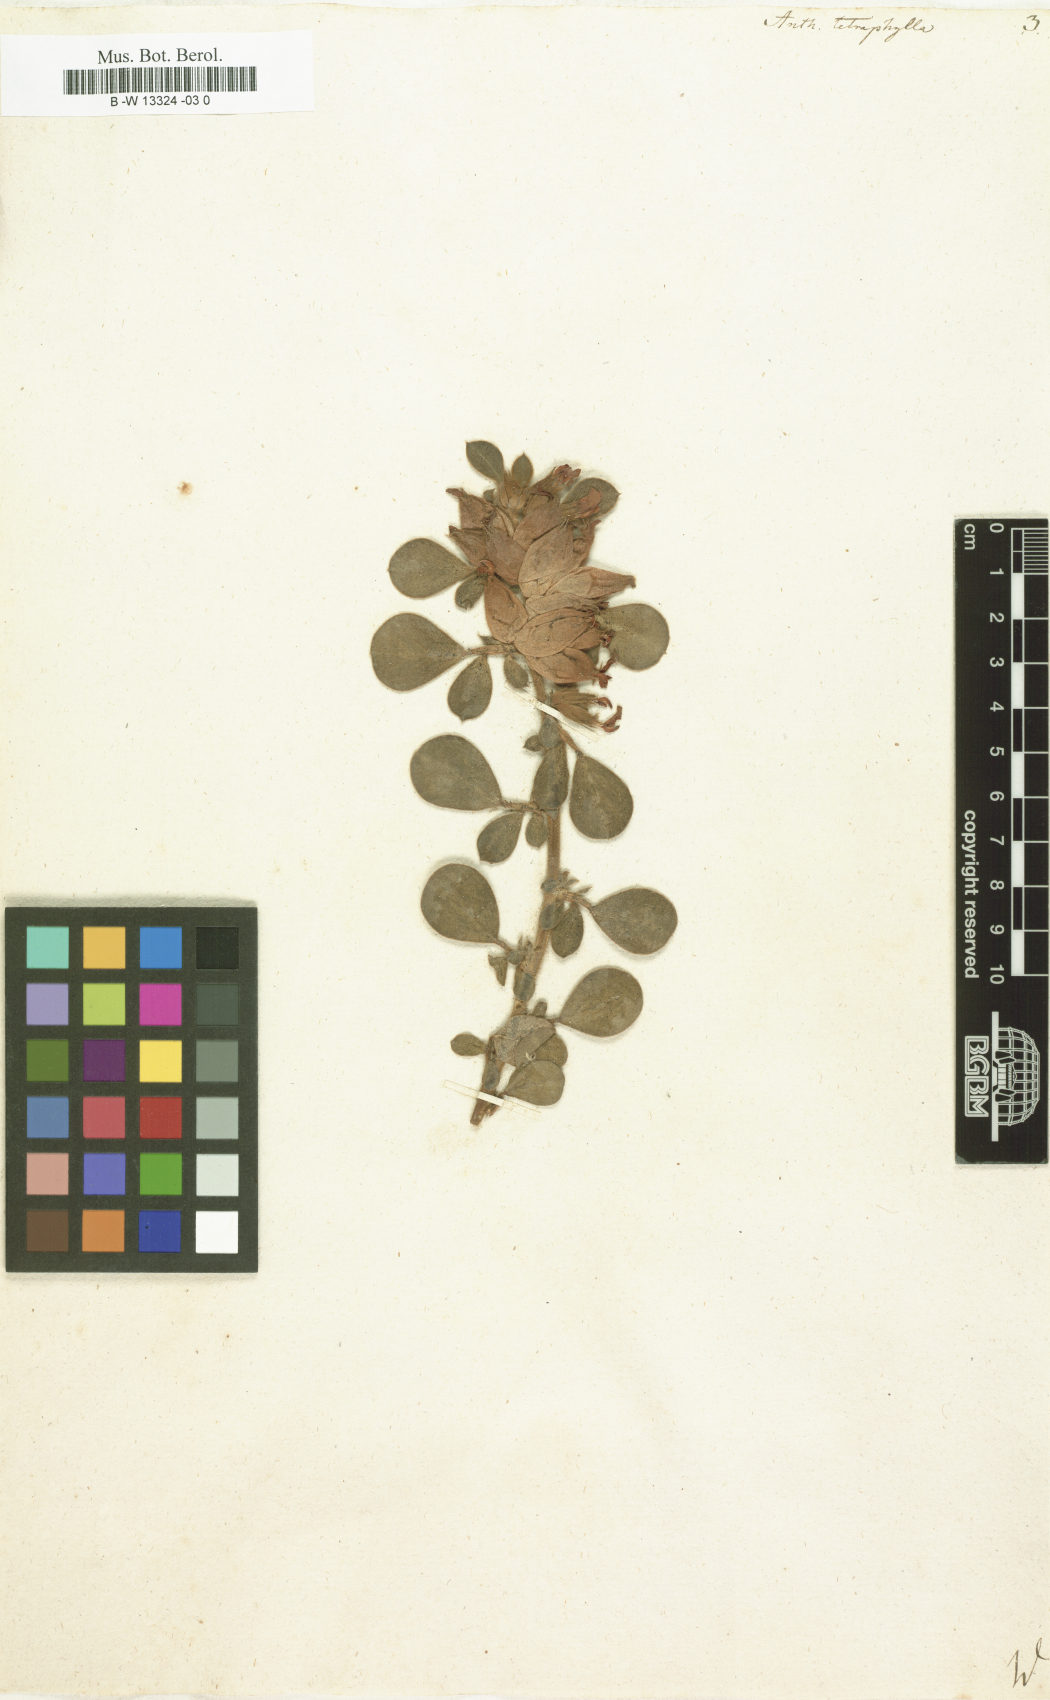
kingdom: Plantae
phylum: Tracheophyta
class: Magnoliopsida
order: Fabales
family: Fabaceae
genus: Tripodion
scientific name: Tripodion tetraphyllum
